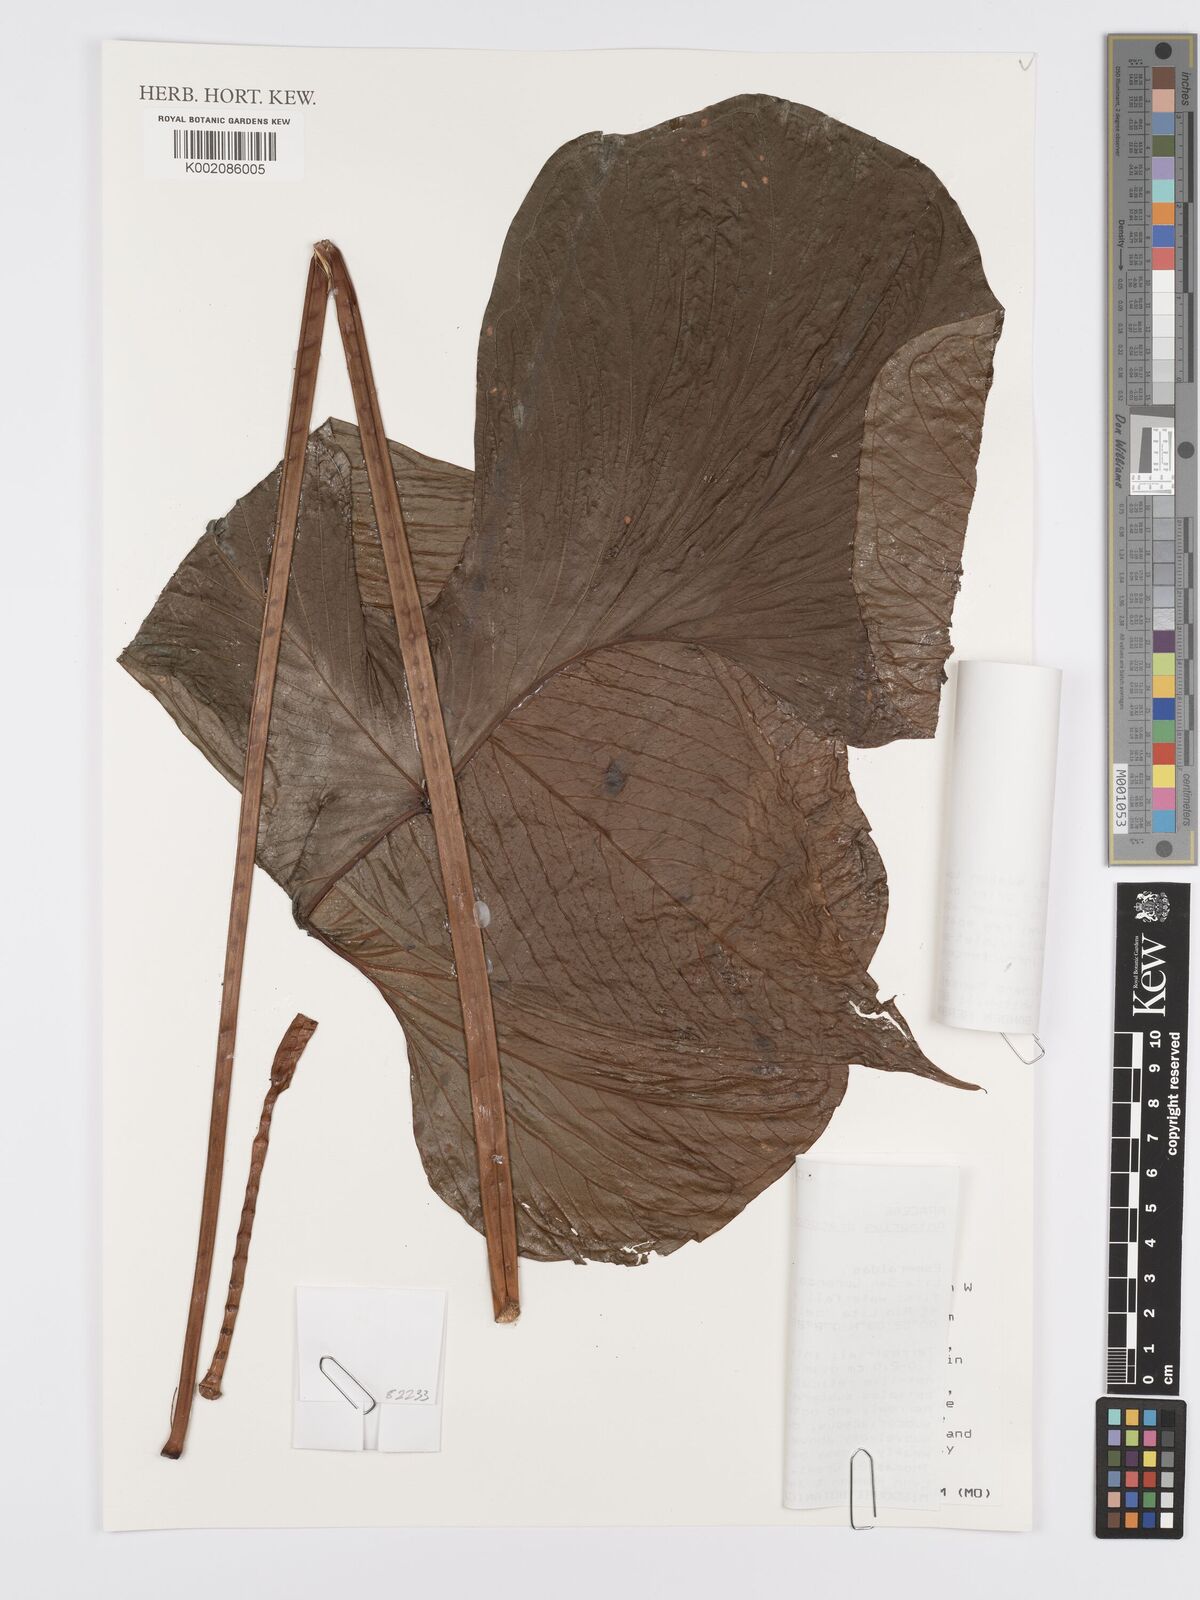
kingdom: Plantae
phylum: Tracheophyta
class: Liliopsida
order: Alismatales
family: Araceae
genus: Anthurium
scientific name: Anthurium draconopterum
